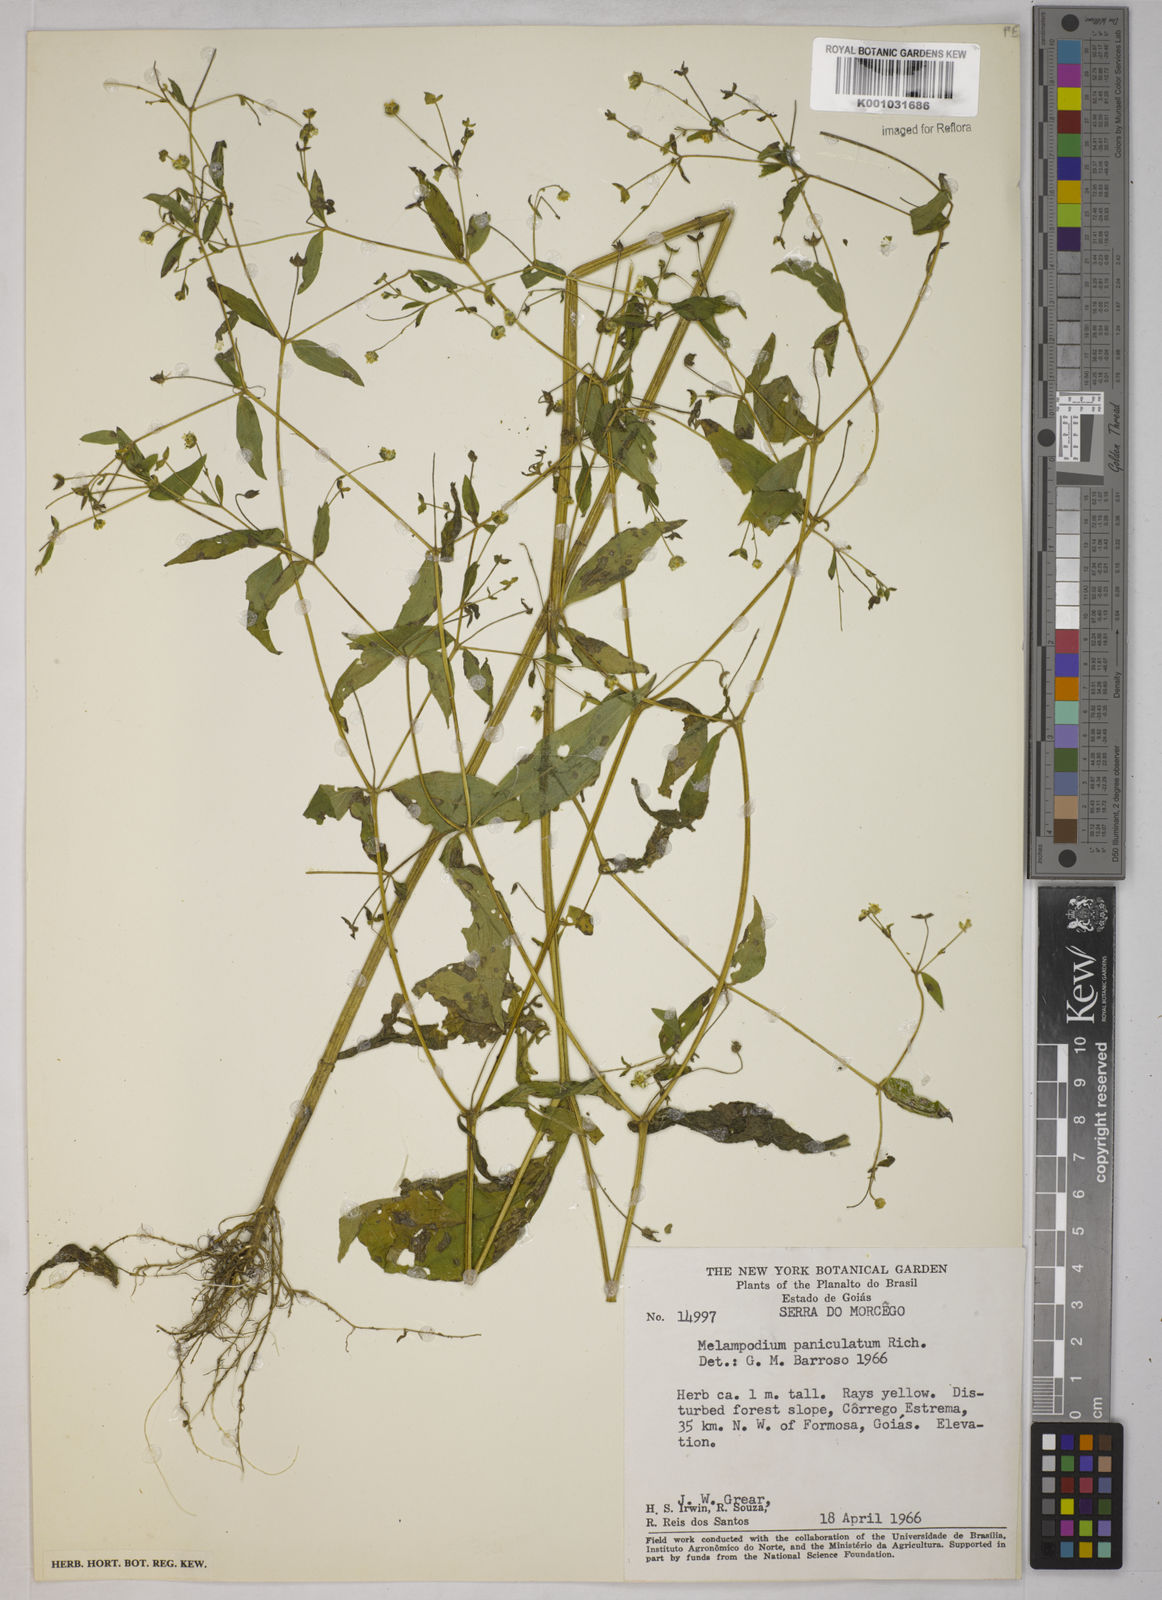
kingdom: Plantae
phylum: Tracheophyta
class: Magnoliopsida
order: Asterales
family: Asteraceae
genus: Melampodium
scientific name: Melampodium paniculatum
